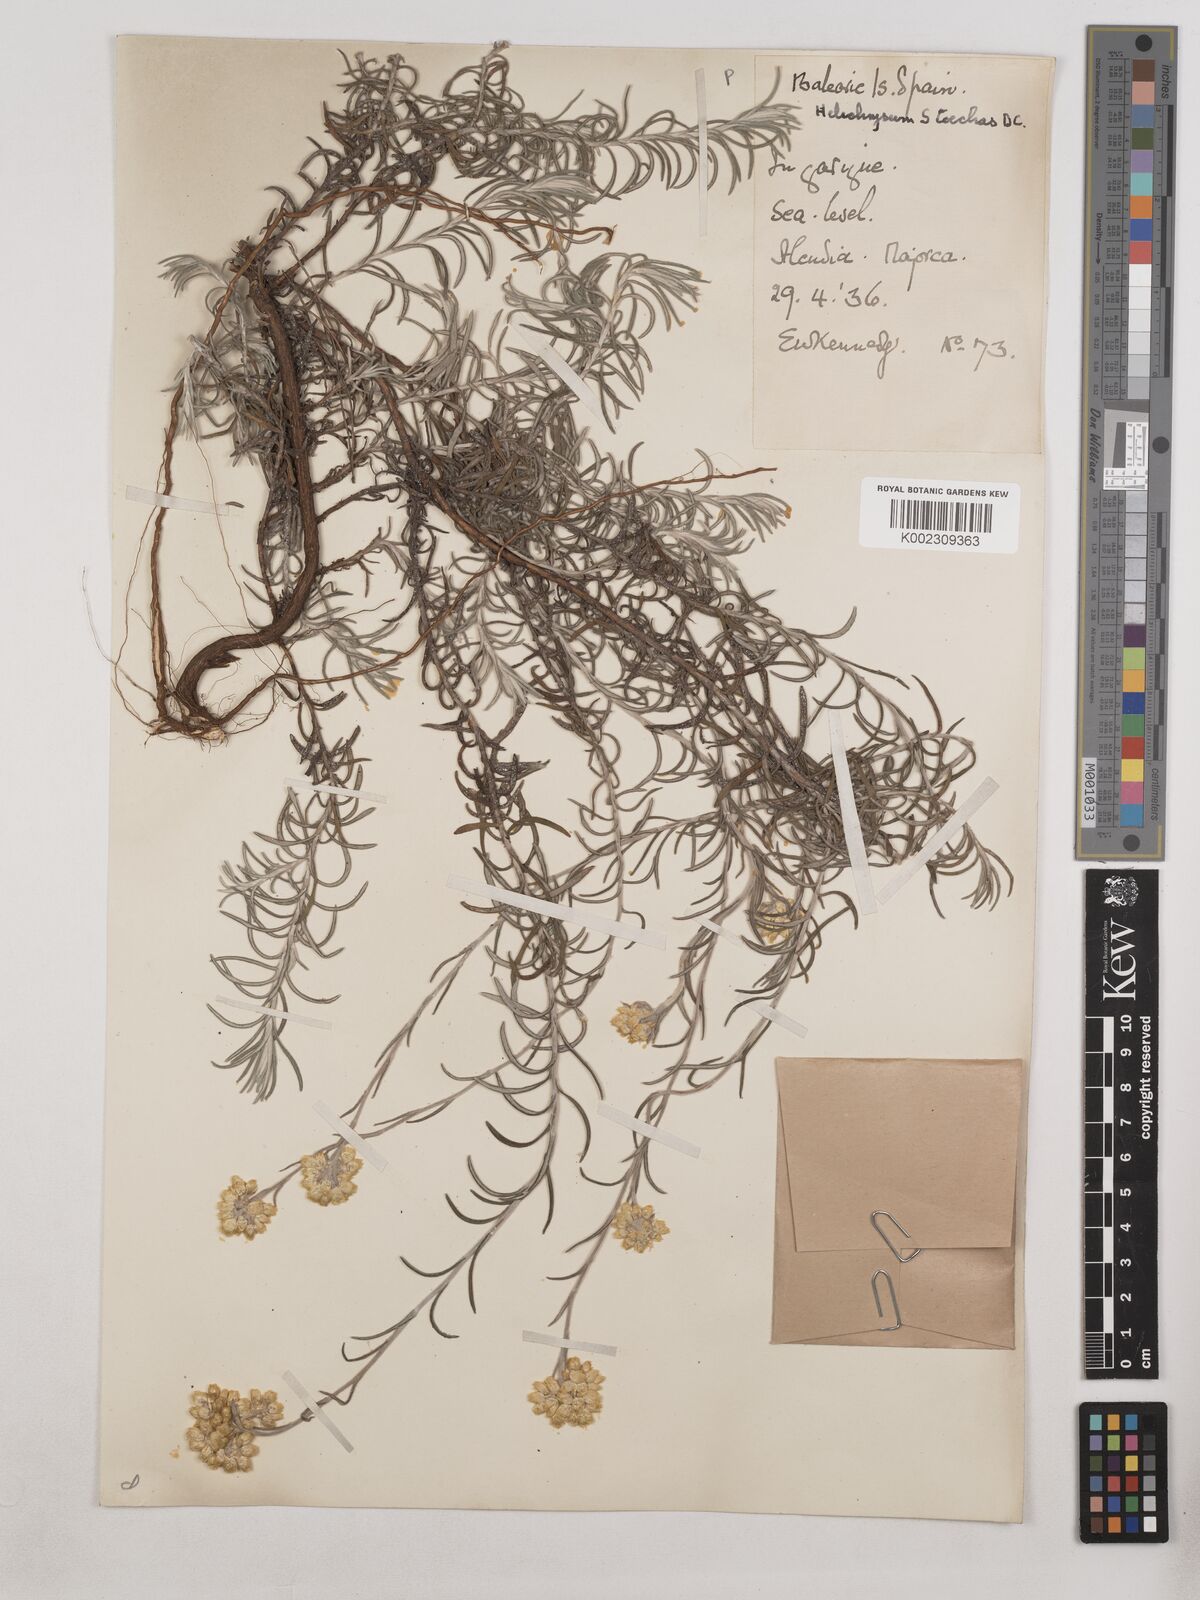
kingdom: Plantae
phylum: Tracheophyta
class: Magnoliopsida
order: Asterales
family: Asteraceae
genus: Helichrysum
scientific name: Helichrysum stoechas
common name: Goldilocks
